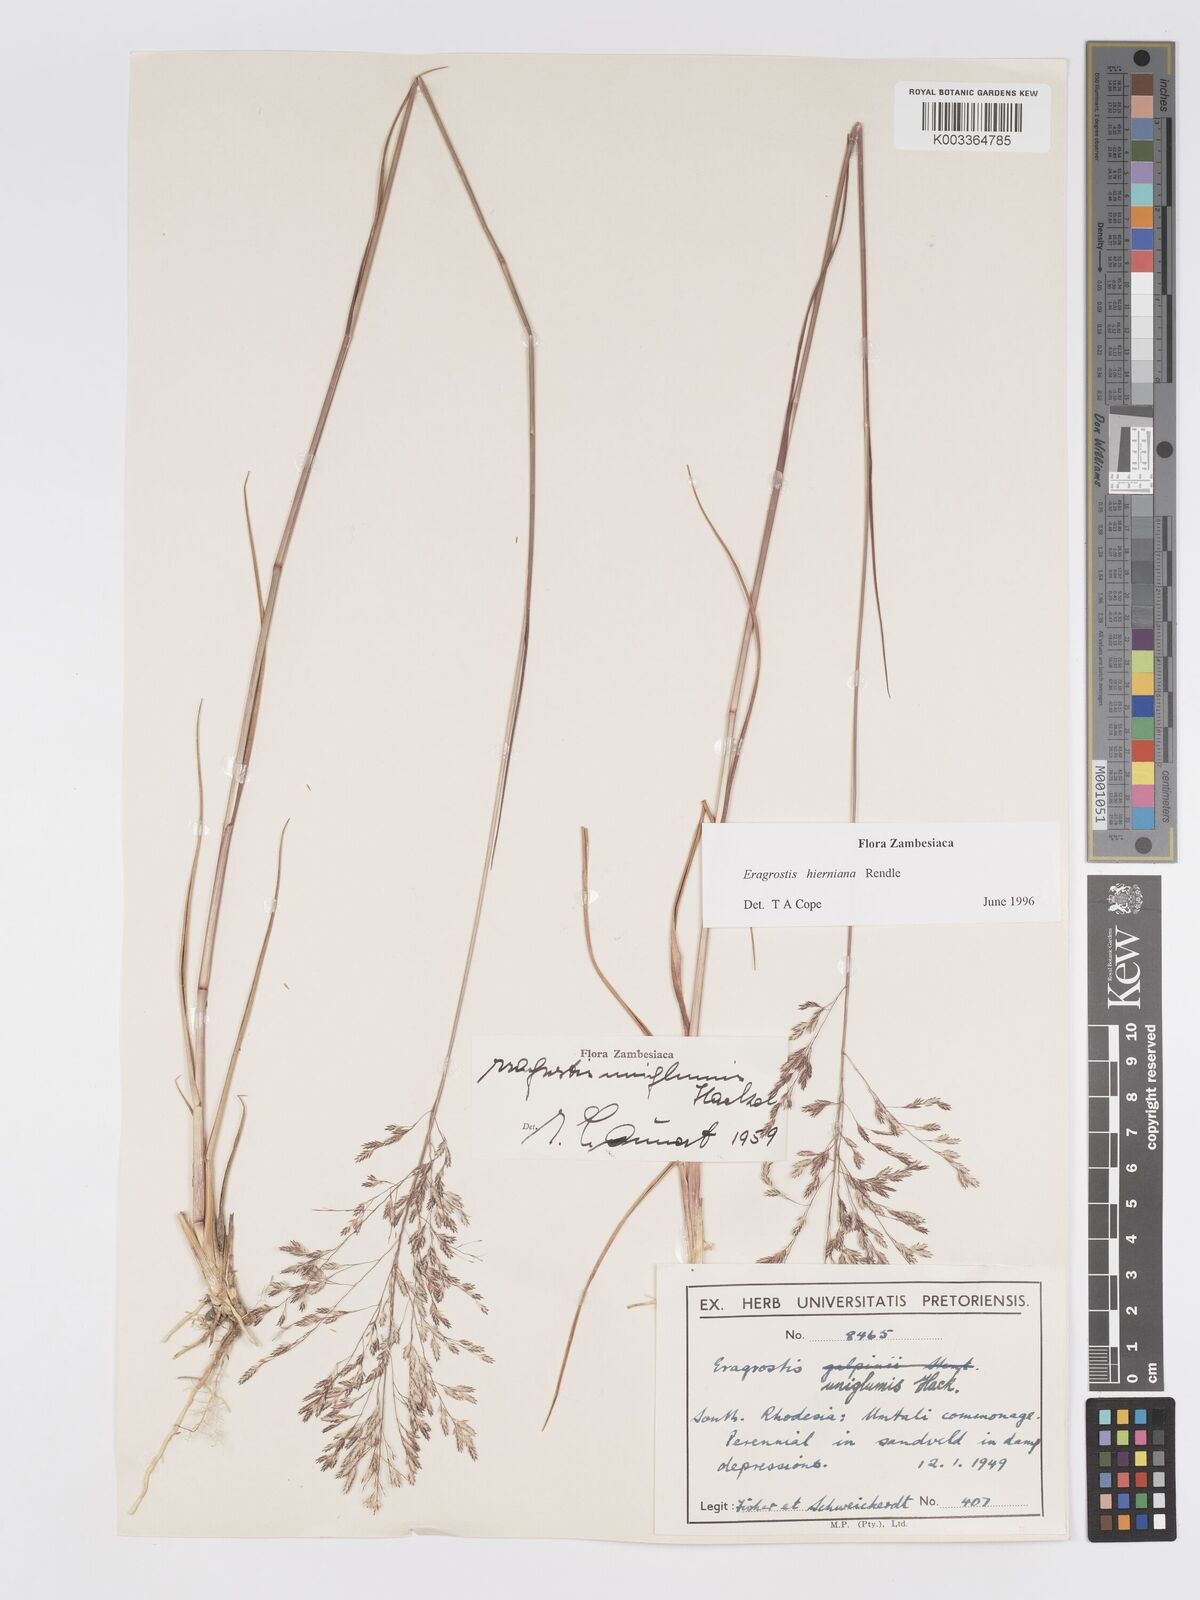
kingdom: Plantae
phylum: Tracheophyta
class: Liliopsida
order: Poales
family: Poaceae
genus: Eragrostis
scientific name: Eragrostis hierniana
